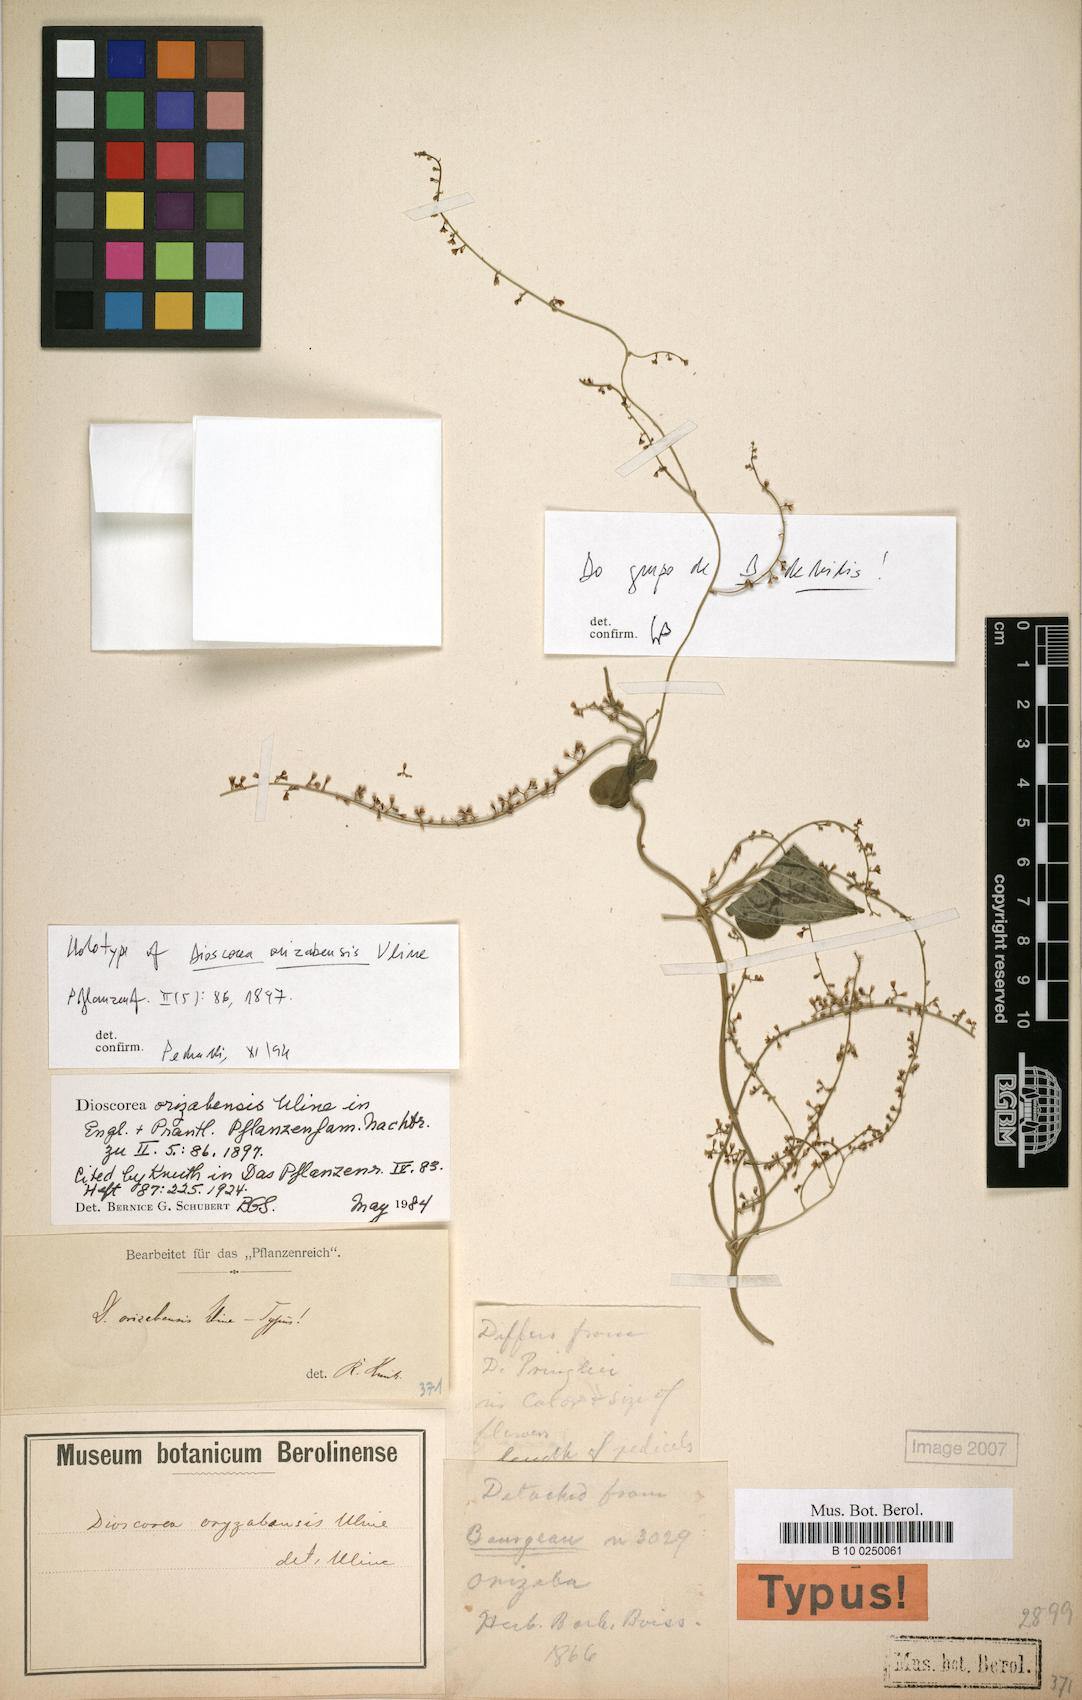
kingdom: Plantae
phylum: Tracheophyta
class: Liliopsida
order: Dioscoreales
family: Dioscoreaceae
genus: Dioscorea
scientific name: Dioscorea orizabensis
